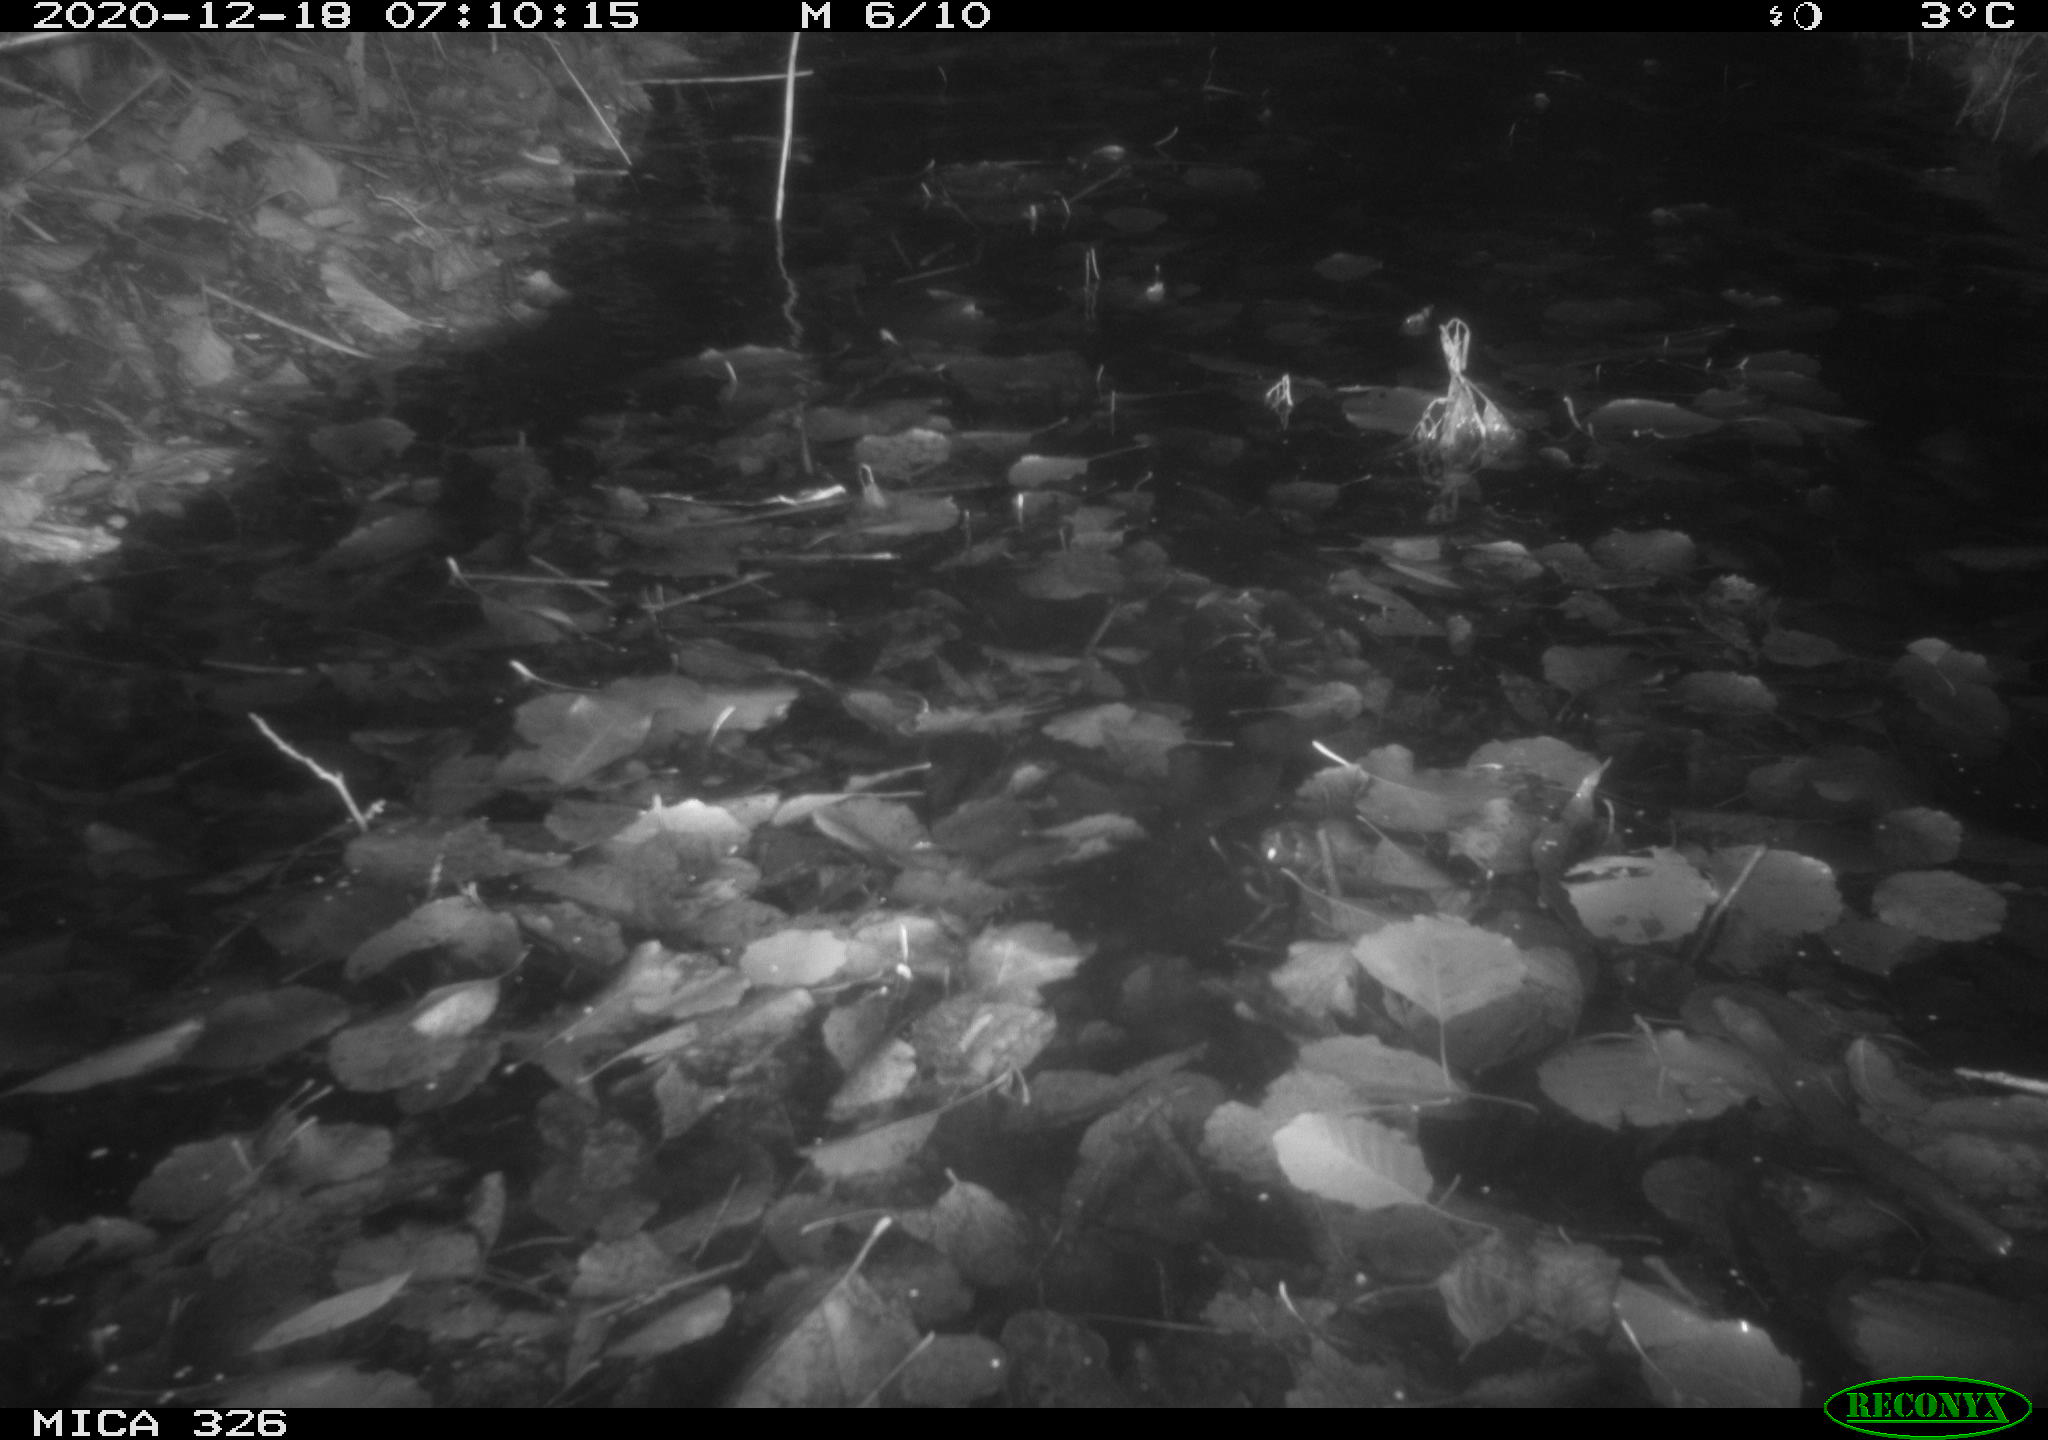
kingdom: Animalia
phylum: Chordata
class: Mammalia
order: Carnivora
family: Mustelidae
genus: Lutra
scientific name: Lutra lutra
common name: European otter
